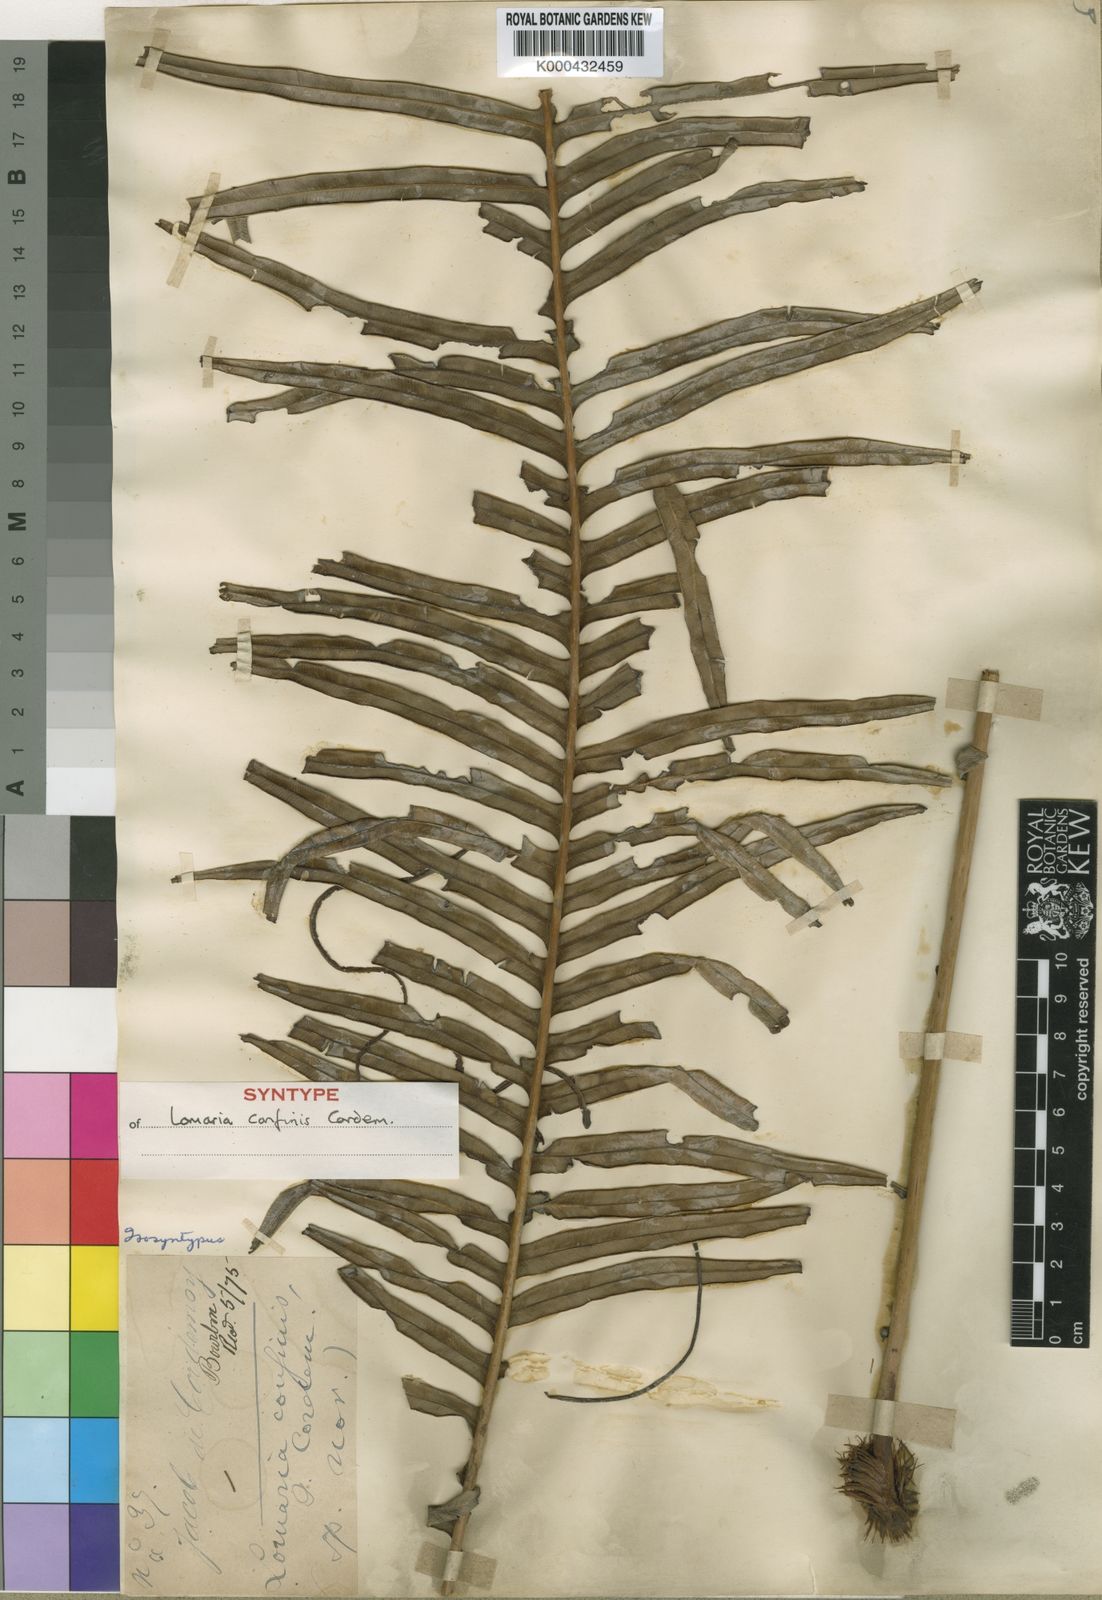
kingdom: Plantae
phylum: Tracheophyta
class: Polypodiopsida
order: Polypodiales
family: Blechnaceae
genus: Lomaridium
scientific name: Lomaridium attenuatum
